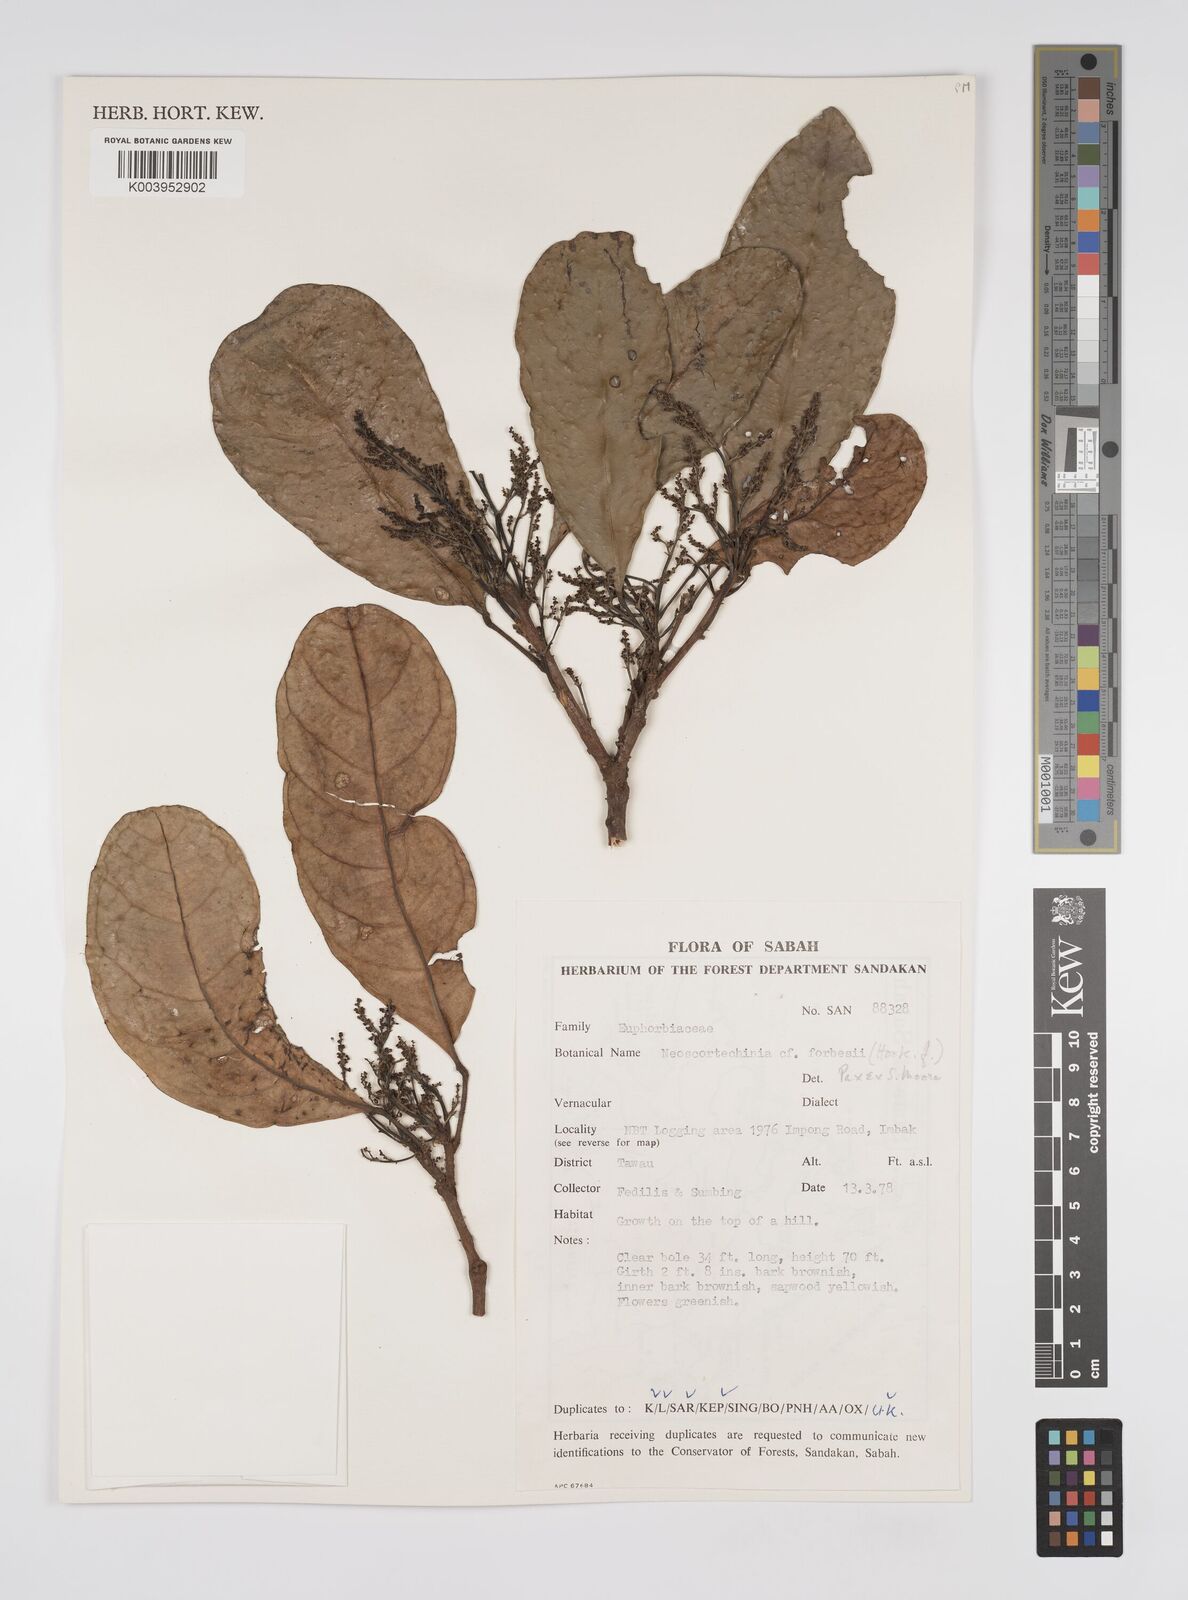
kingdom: Plantae
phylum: Tracheophyta
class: Magnoliopsida
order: Malpighiales
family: Euphorbiaceae
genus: Neoscortechinia
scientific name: Neoscortechinia philippinensis
